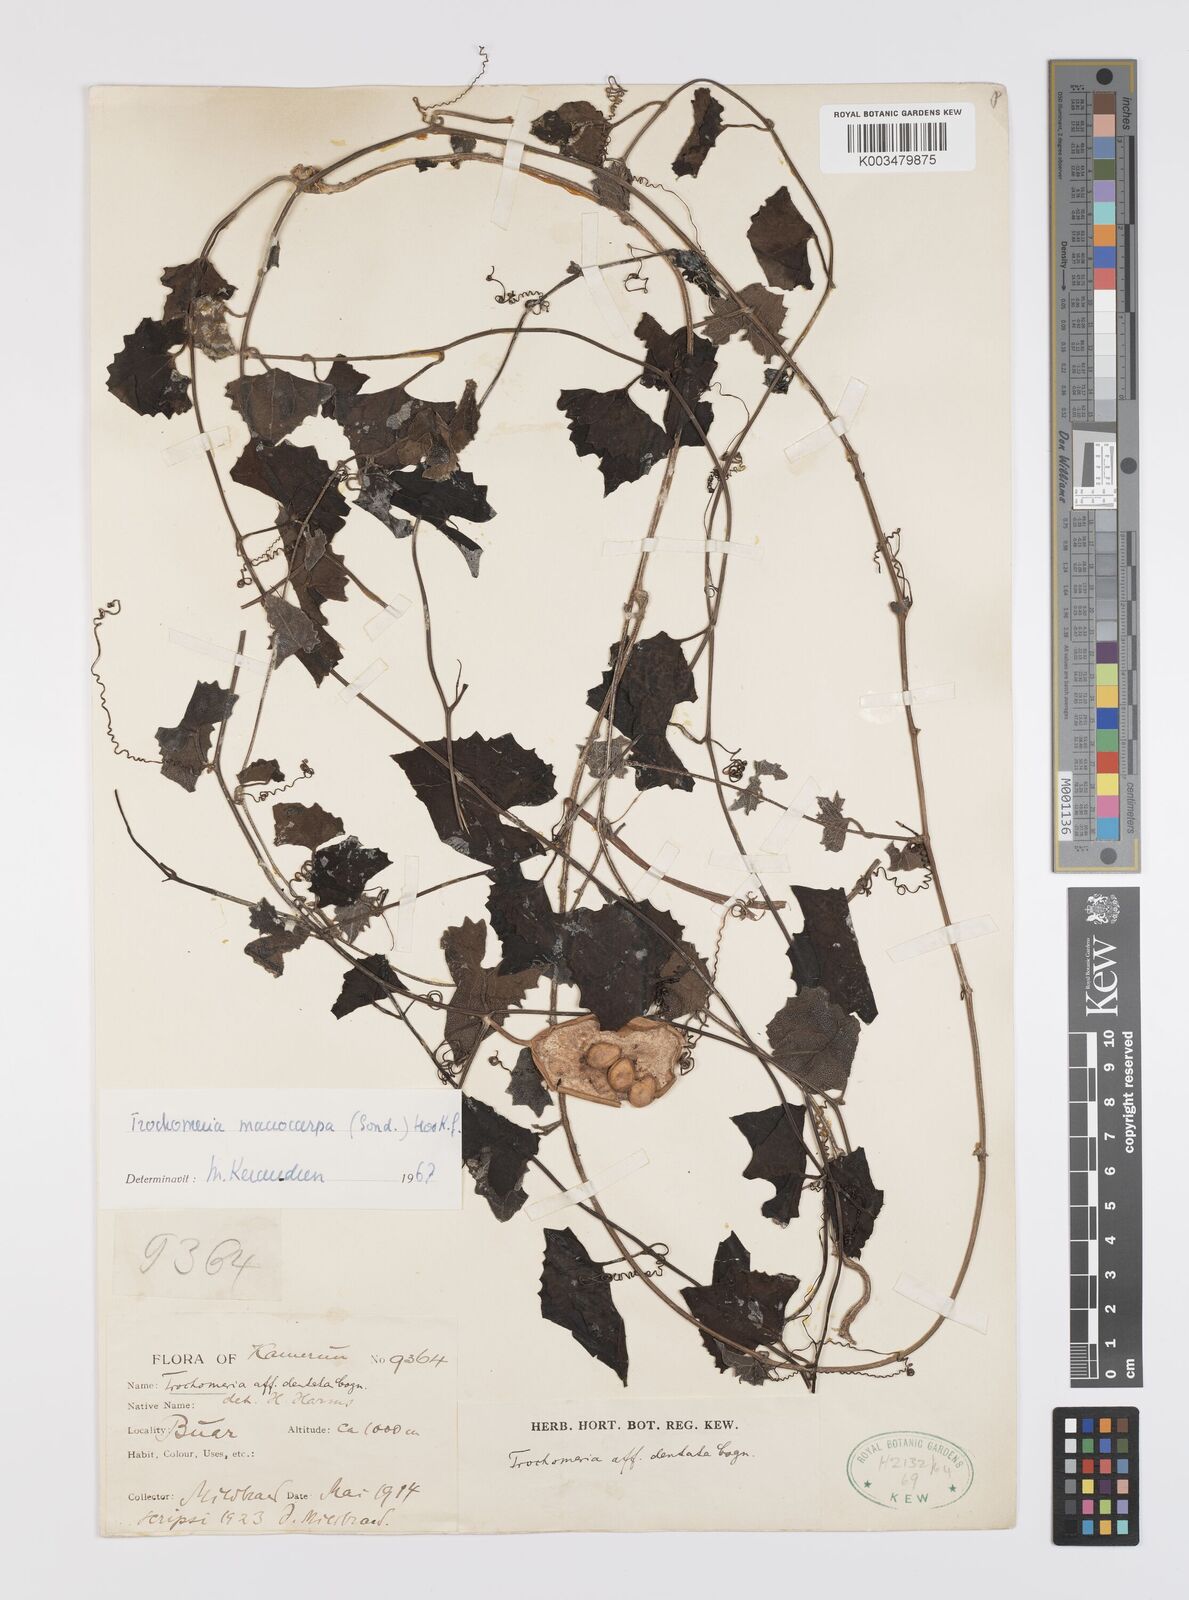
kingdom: Plantae
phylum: Tracheophyta
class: Magnoliopsida
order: Cucurbitales
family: Cucurbitaceae
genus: Trochomeria
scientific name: Trochomeria macrocarpa
